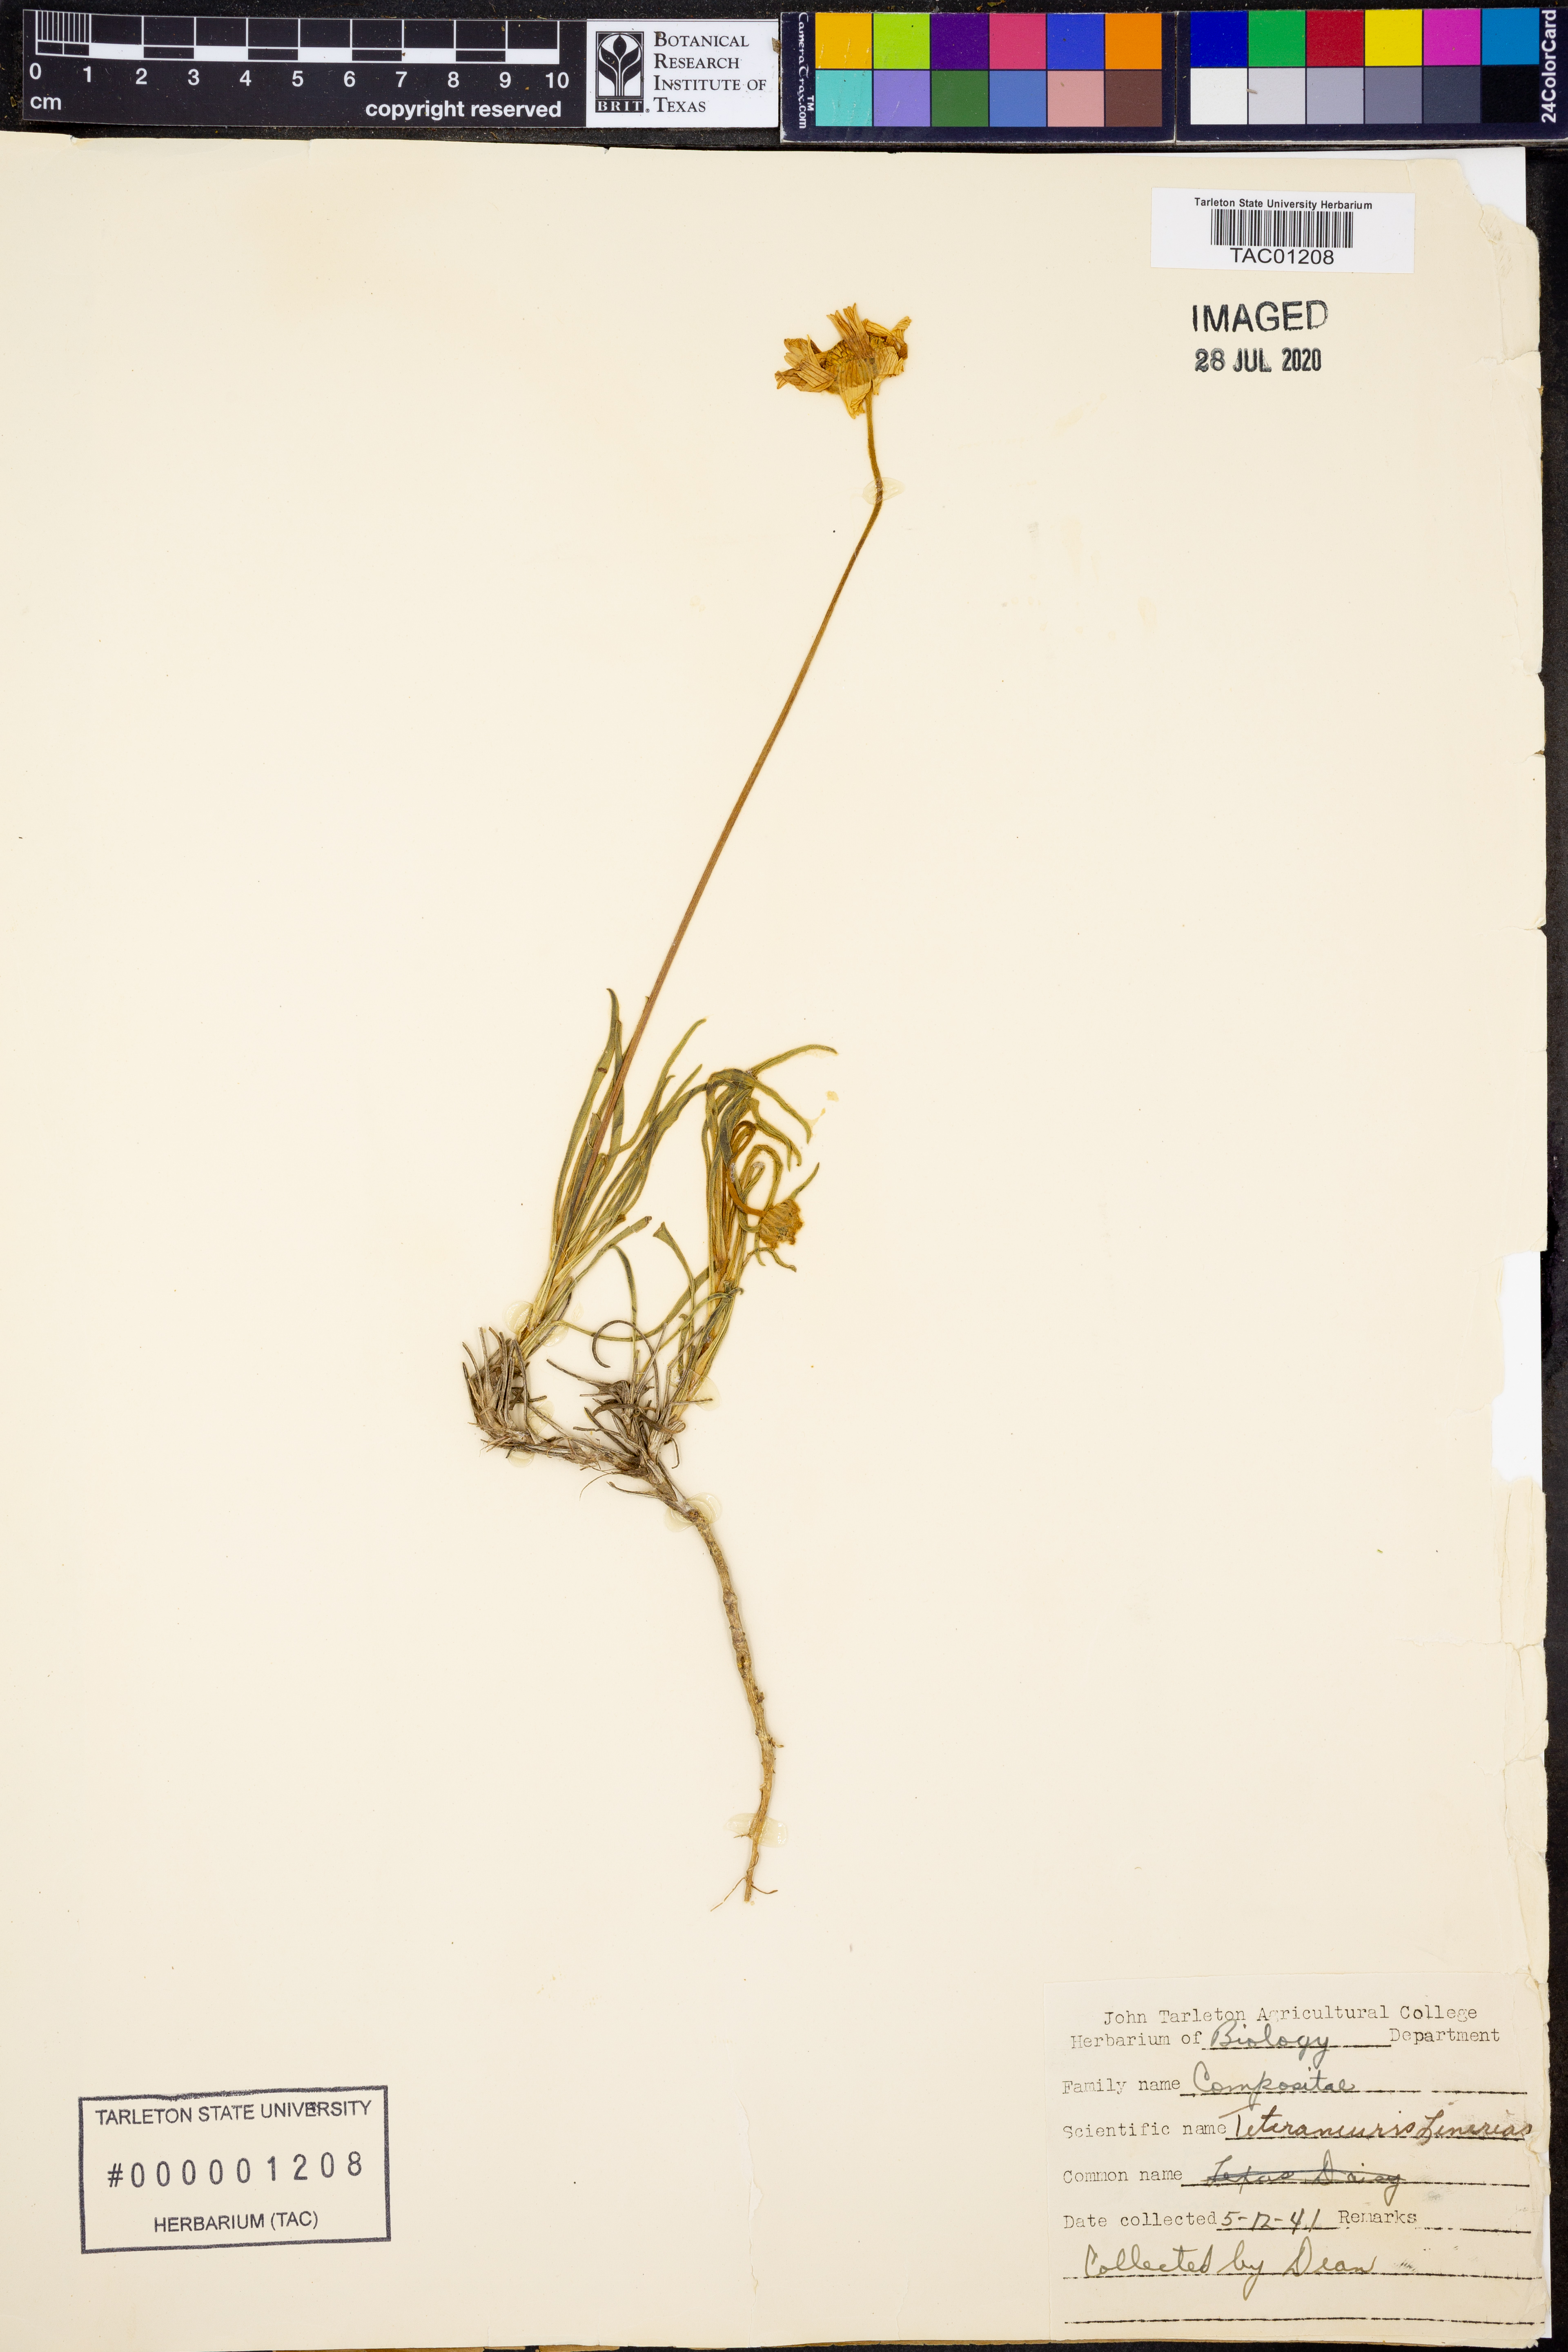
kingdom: Plantae
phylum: Tracheophyta
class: Magnoliopsida
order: Asterales
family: Asteraceae
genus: Tetraneuris
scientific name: Tetraneuris scaposa
